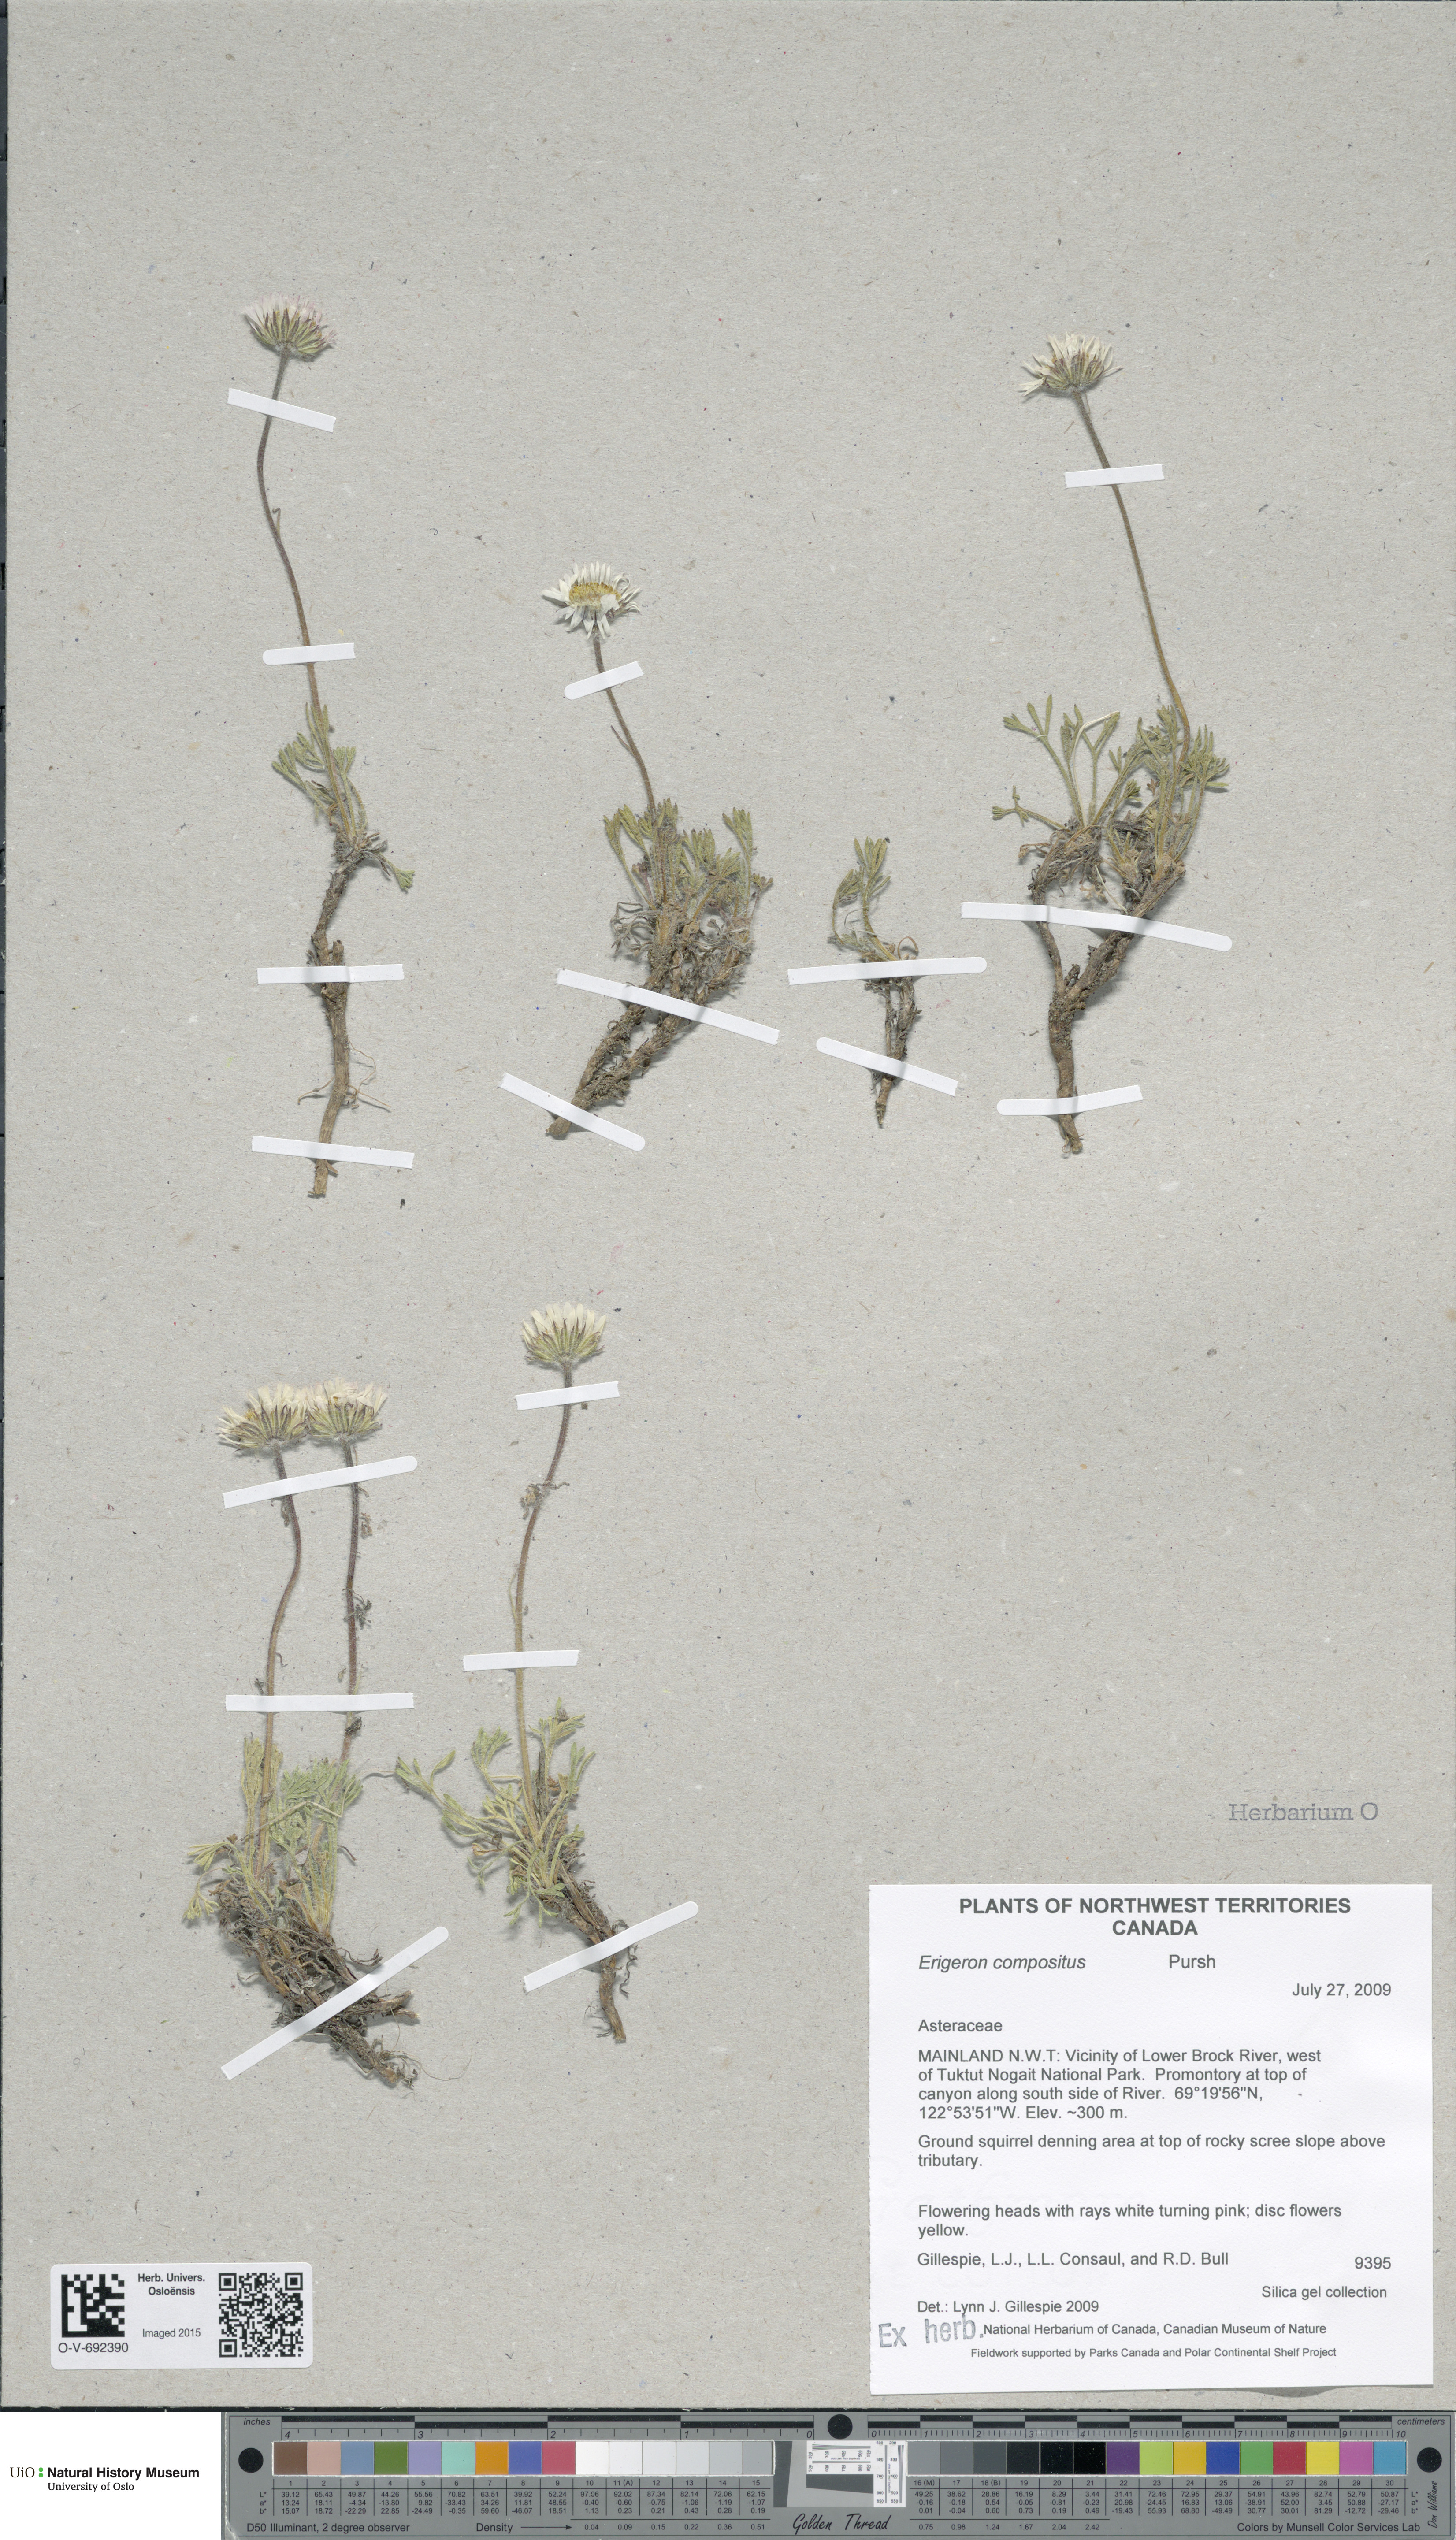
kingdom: Plantae
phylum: Tracheophyta
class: Magnoliopsida
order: Asterales
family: Asteraceae
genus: Erigeron
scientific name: Erigeron compositus
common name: Dwarf mountain fleabane
